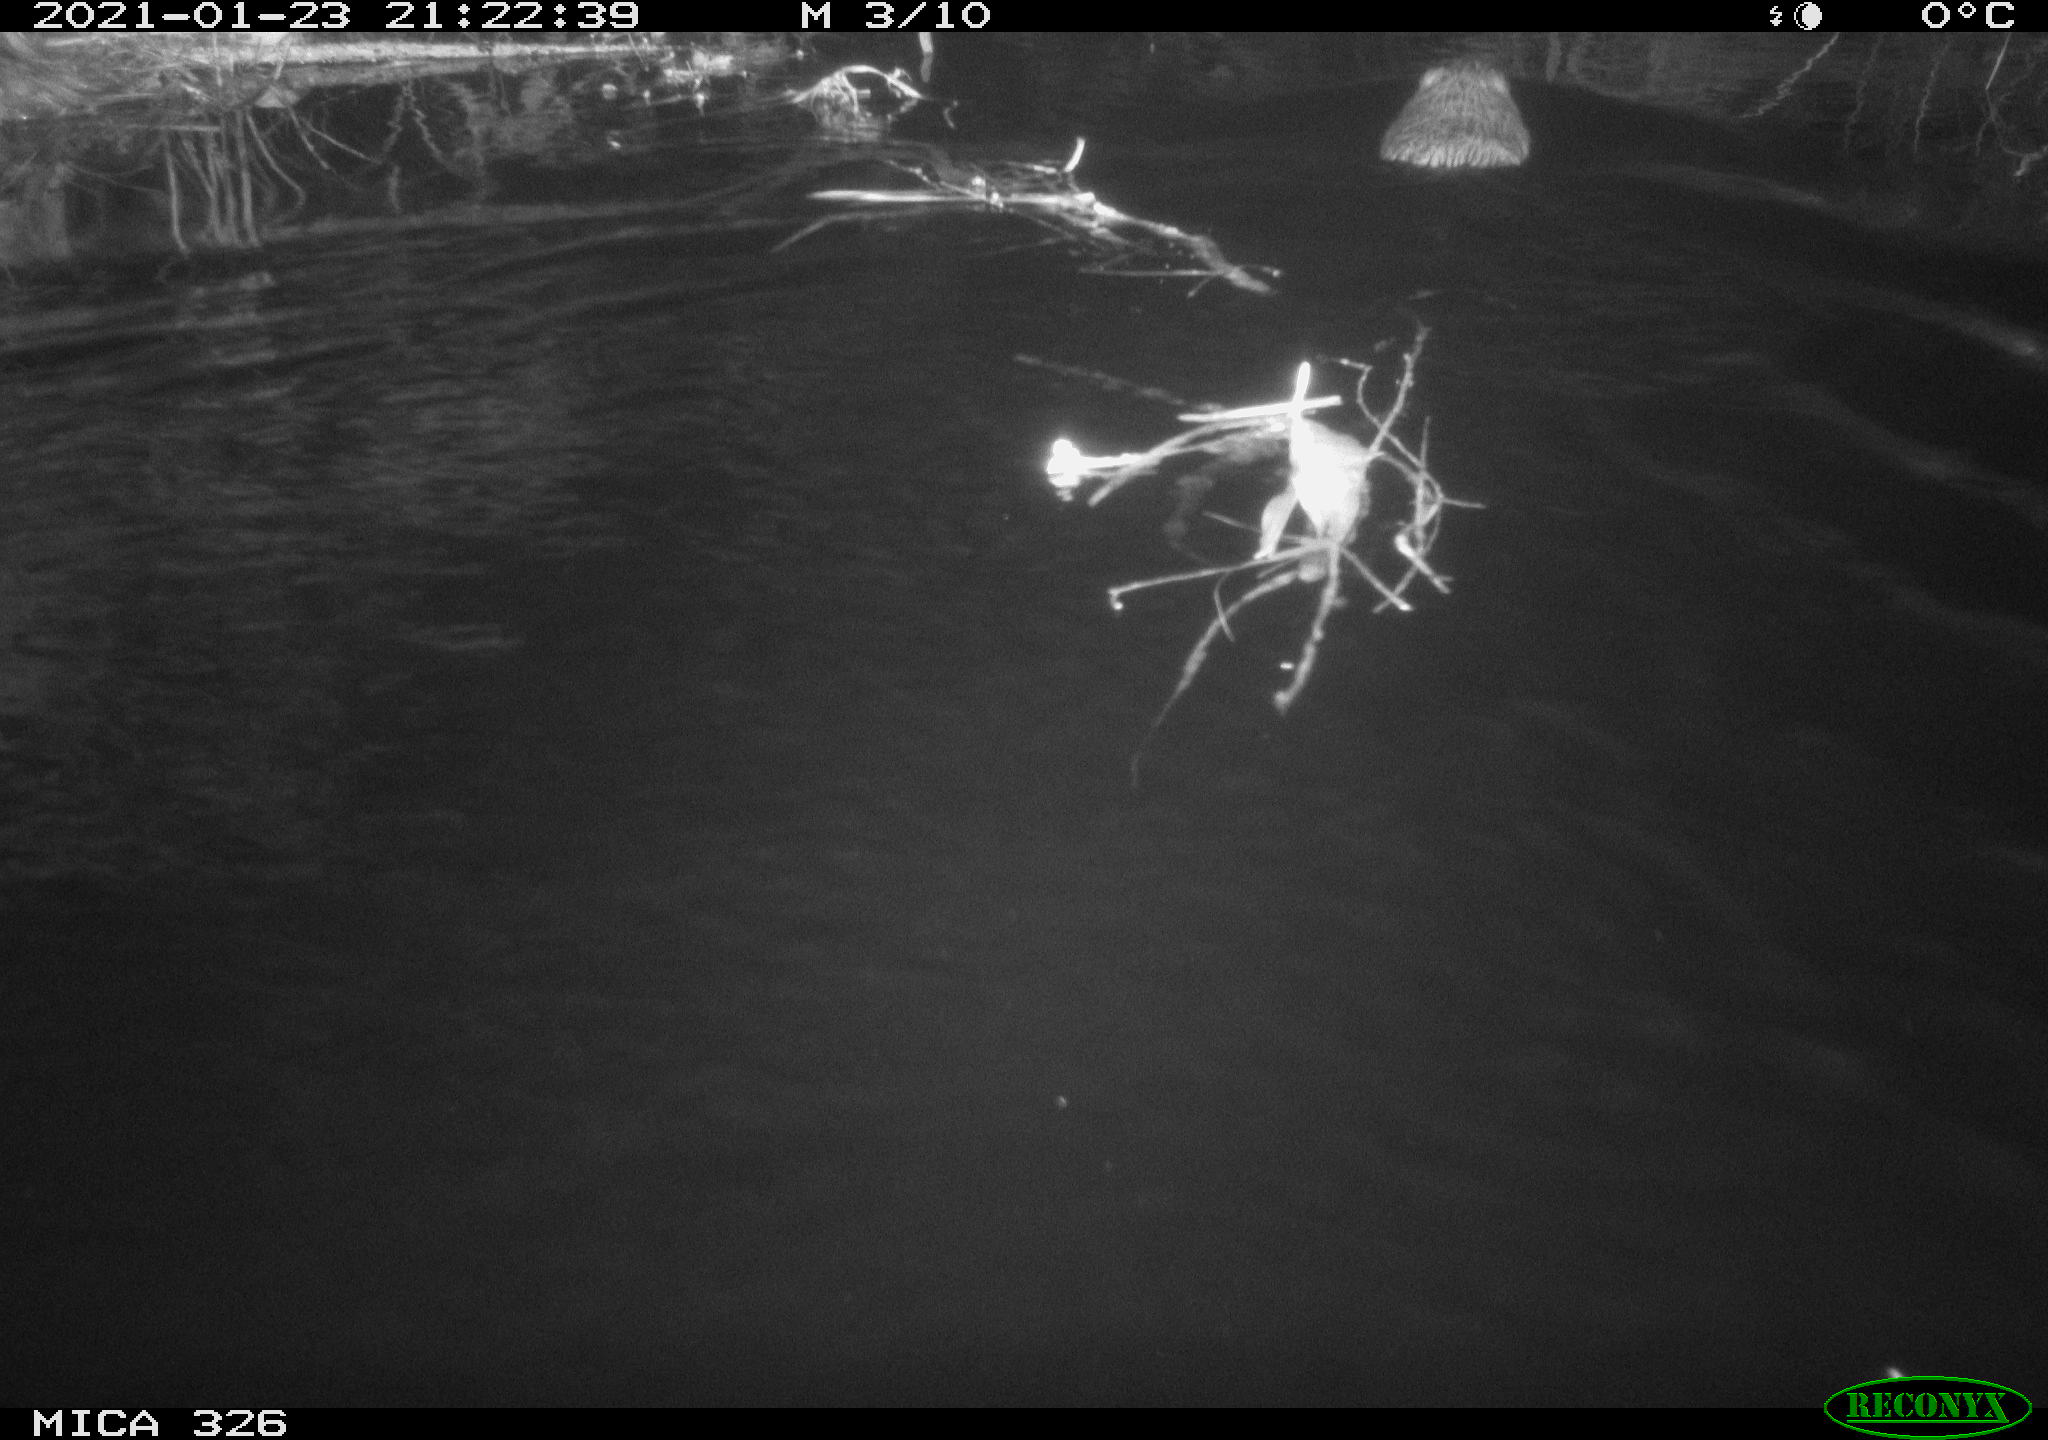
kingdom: Animalia
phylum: Chordata
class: Mammalia
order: Rodentia
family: Cricetidae
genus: Ondatra
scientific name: Ondatra zibethicus
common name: Muskrat
